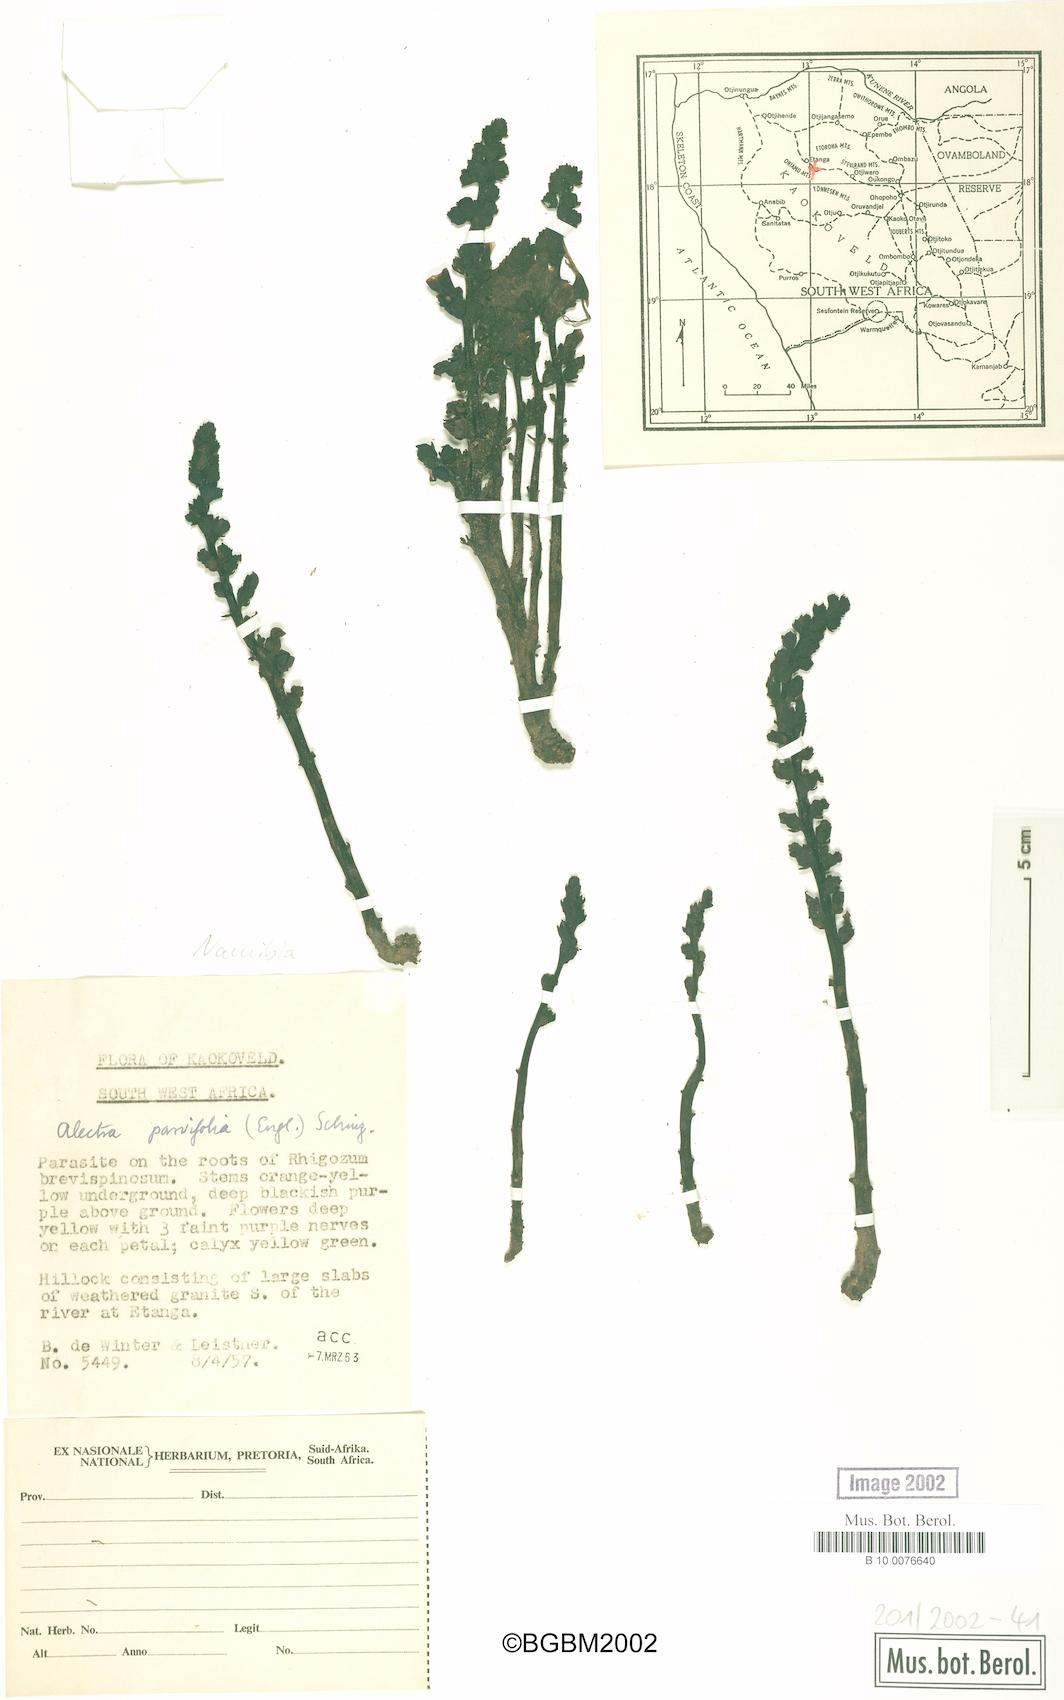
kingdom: Plantae
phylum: Tracheophyta
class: Magnoliopsida
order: Lamiales
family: Orobanchaceae
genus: Alectra
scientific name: Alectra orobanchoides
